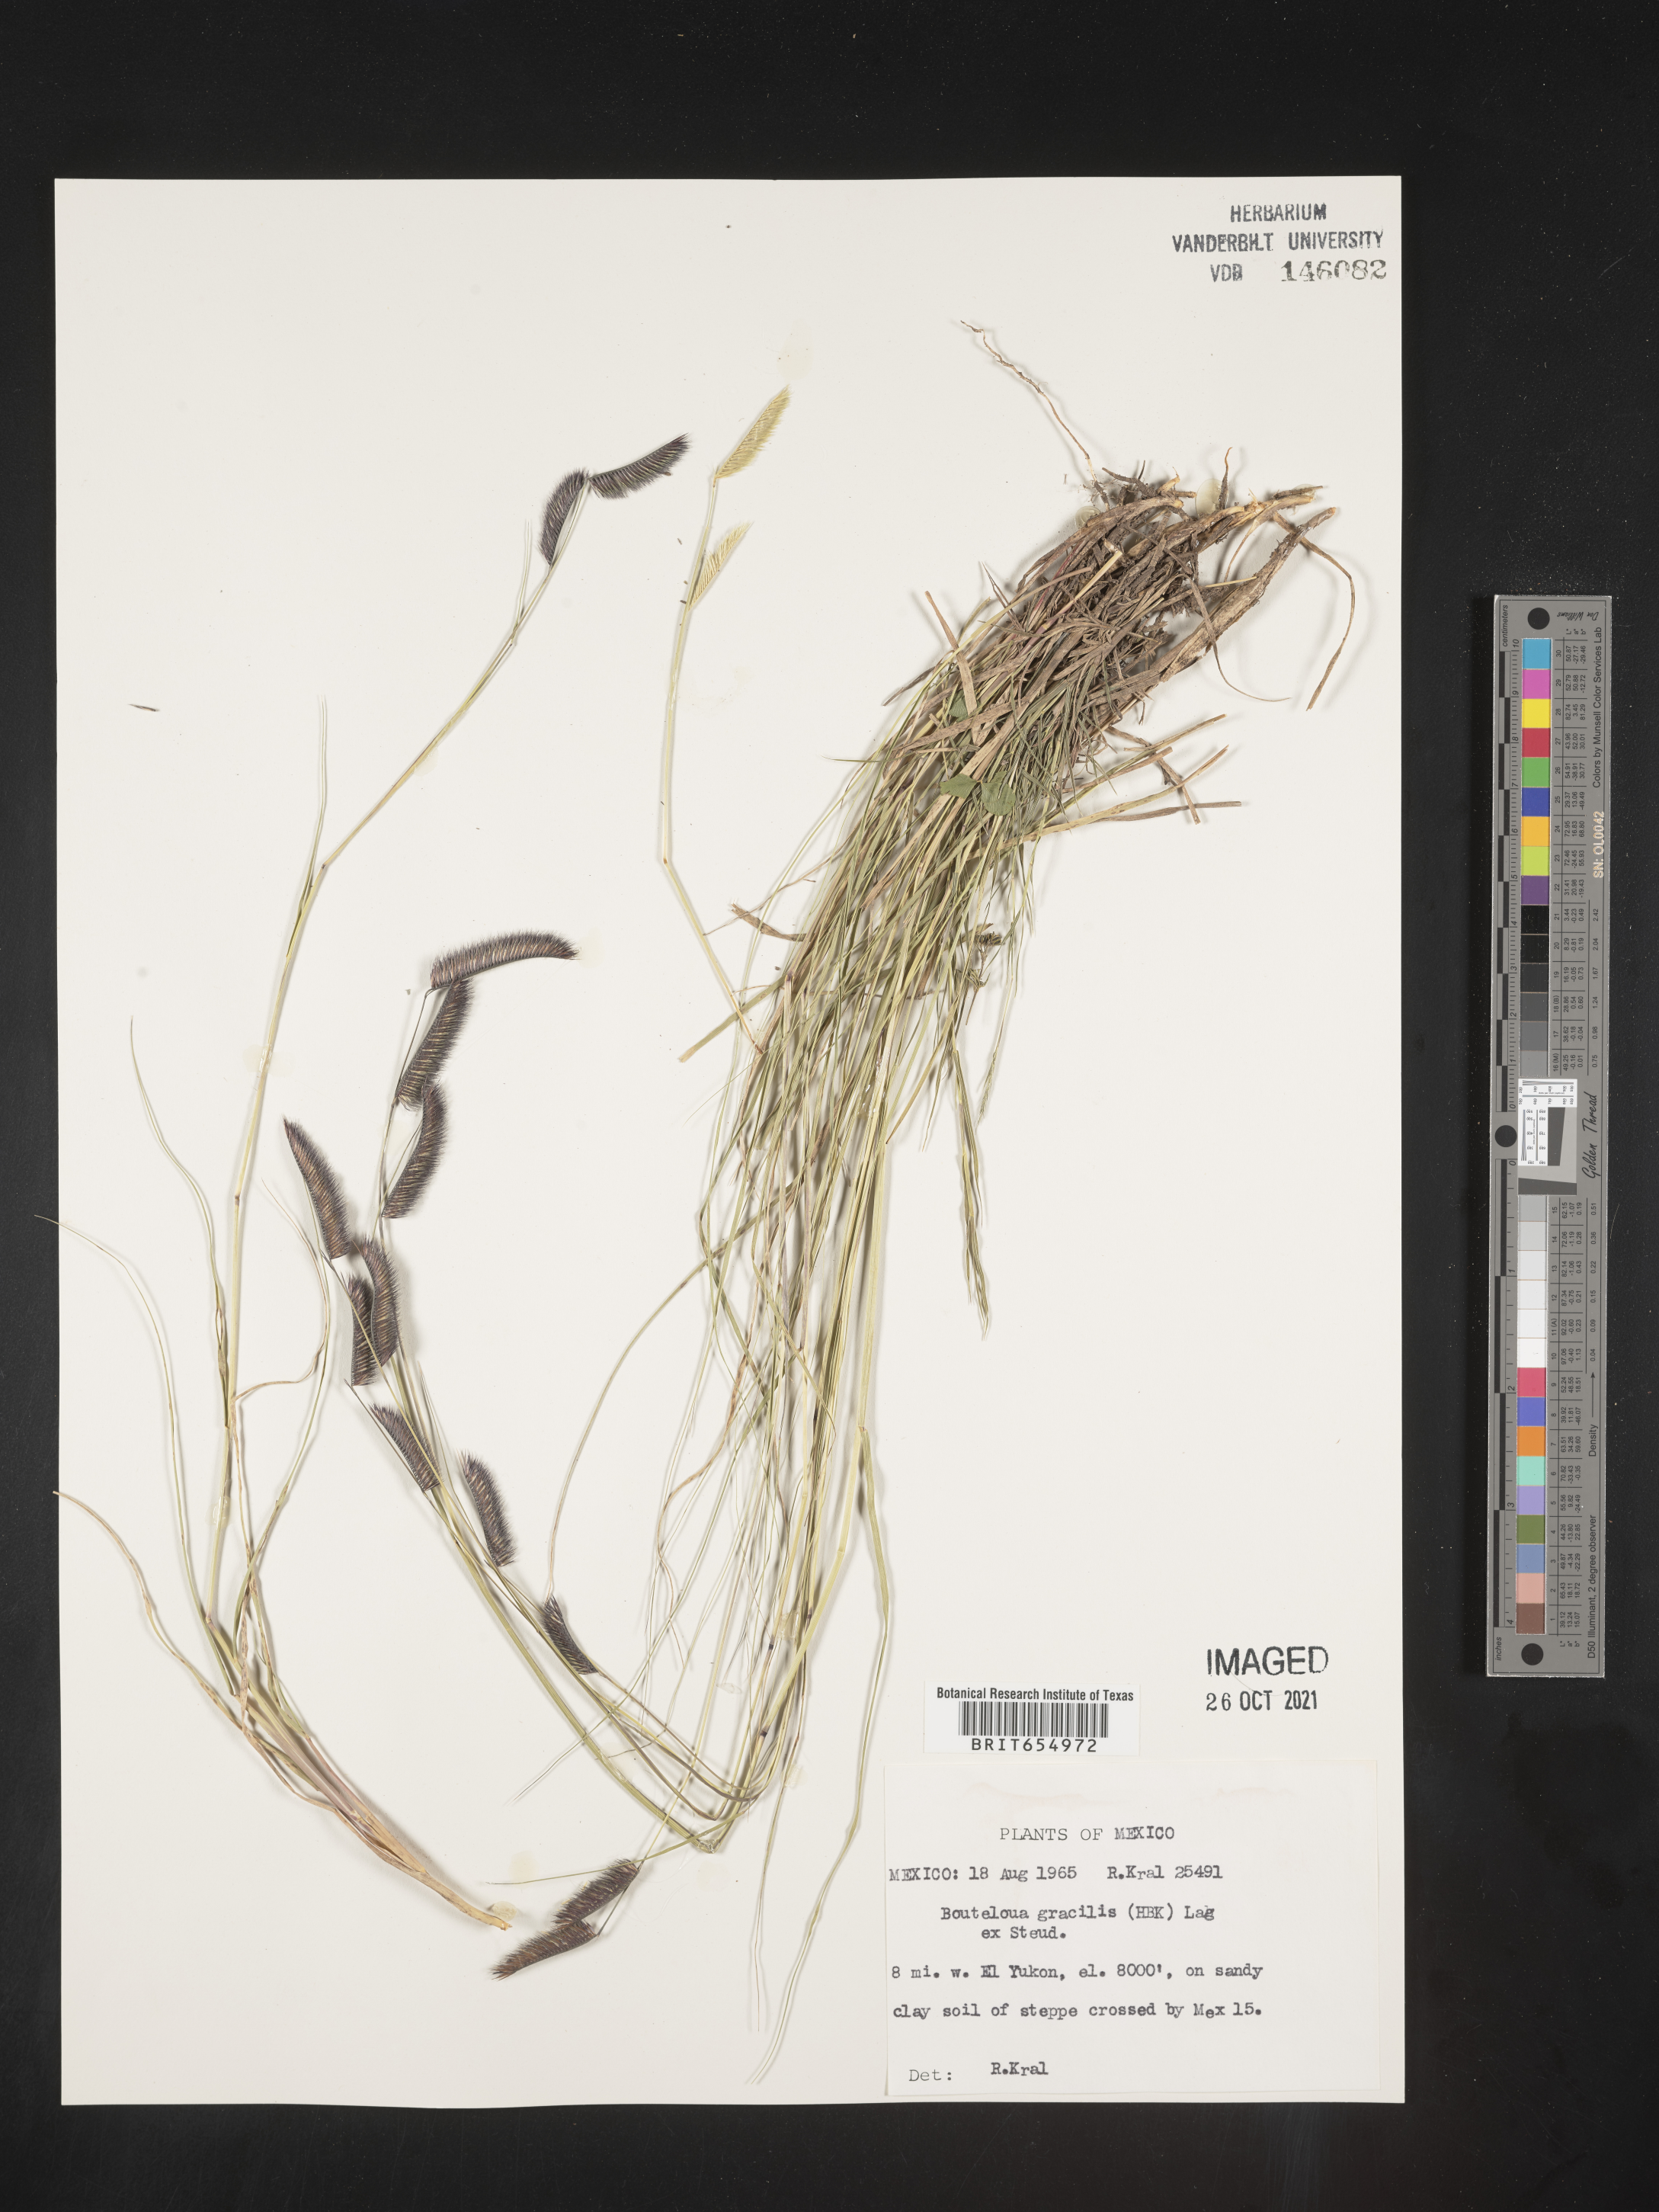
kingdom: Plantae
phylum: Tracheophyta
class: Liliopsida
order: Poales
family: Poaceae
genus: Bouteloua
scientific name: Bouteloua
